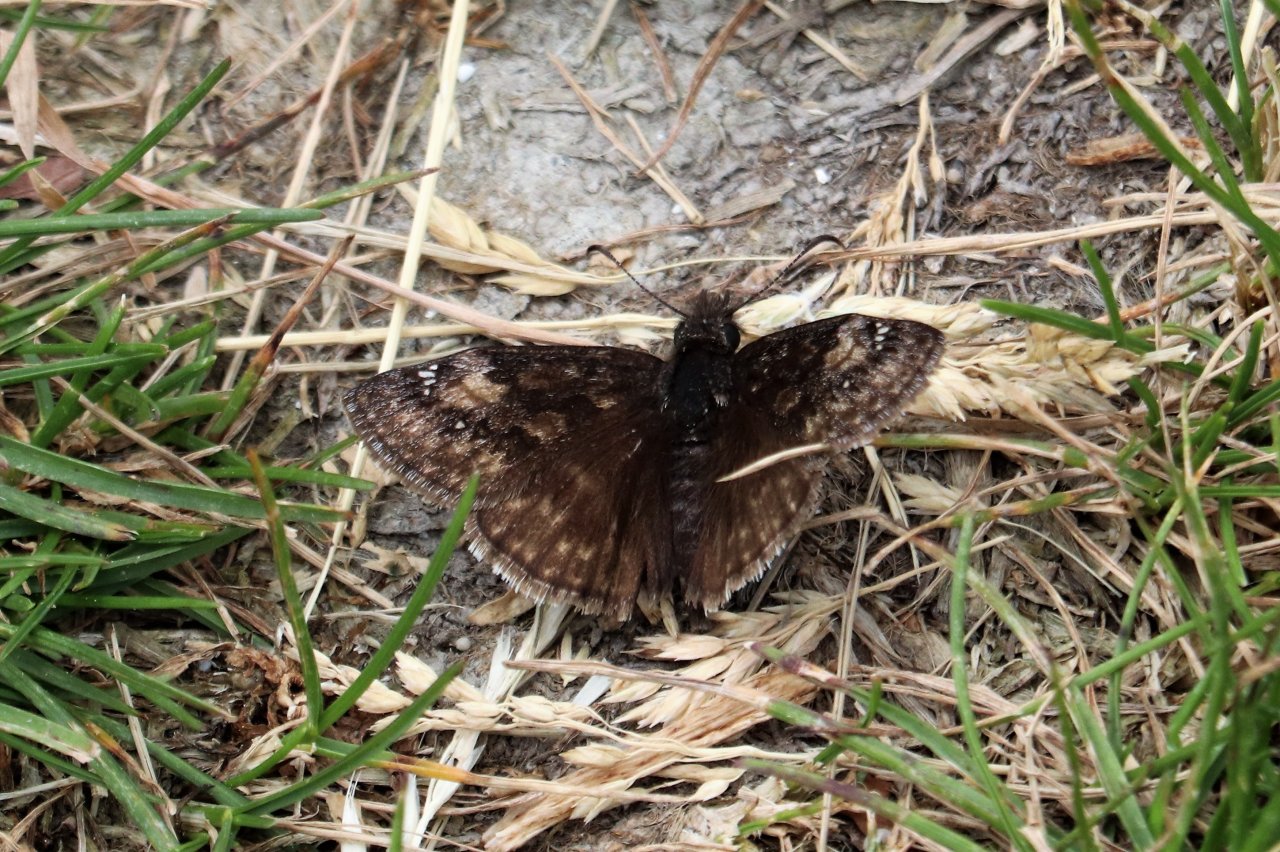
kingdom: Animalia
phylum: Arthropoda
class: Insecta
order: Lepidoptera
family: Hesperiidae
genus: Erynnis
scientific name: Erynnis
